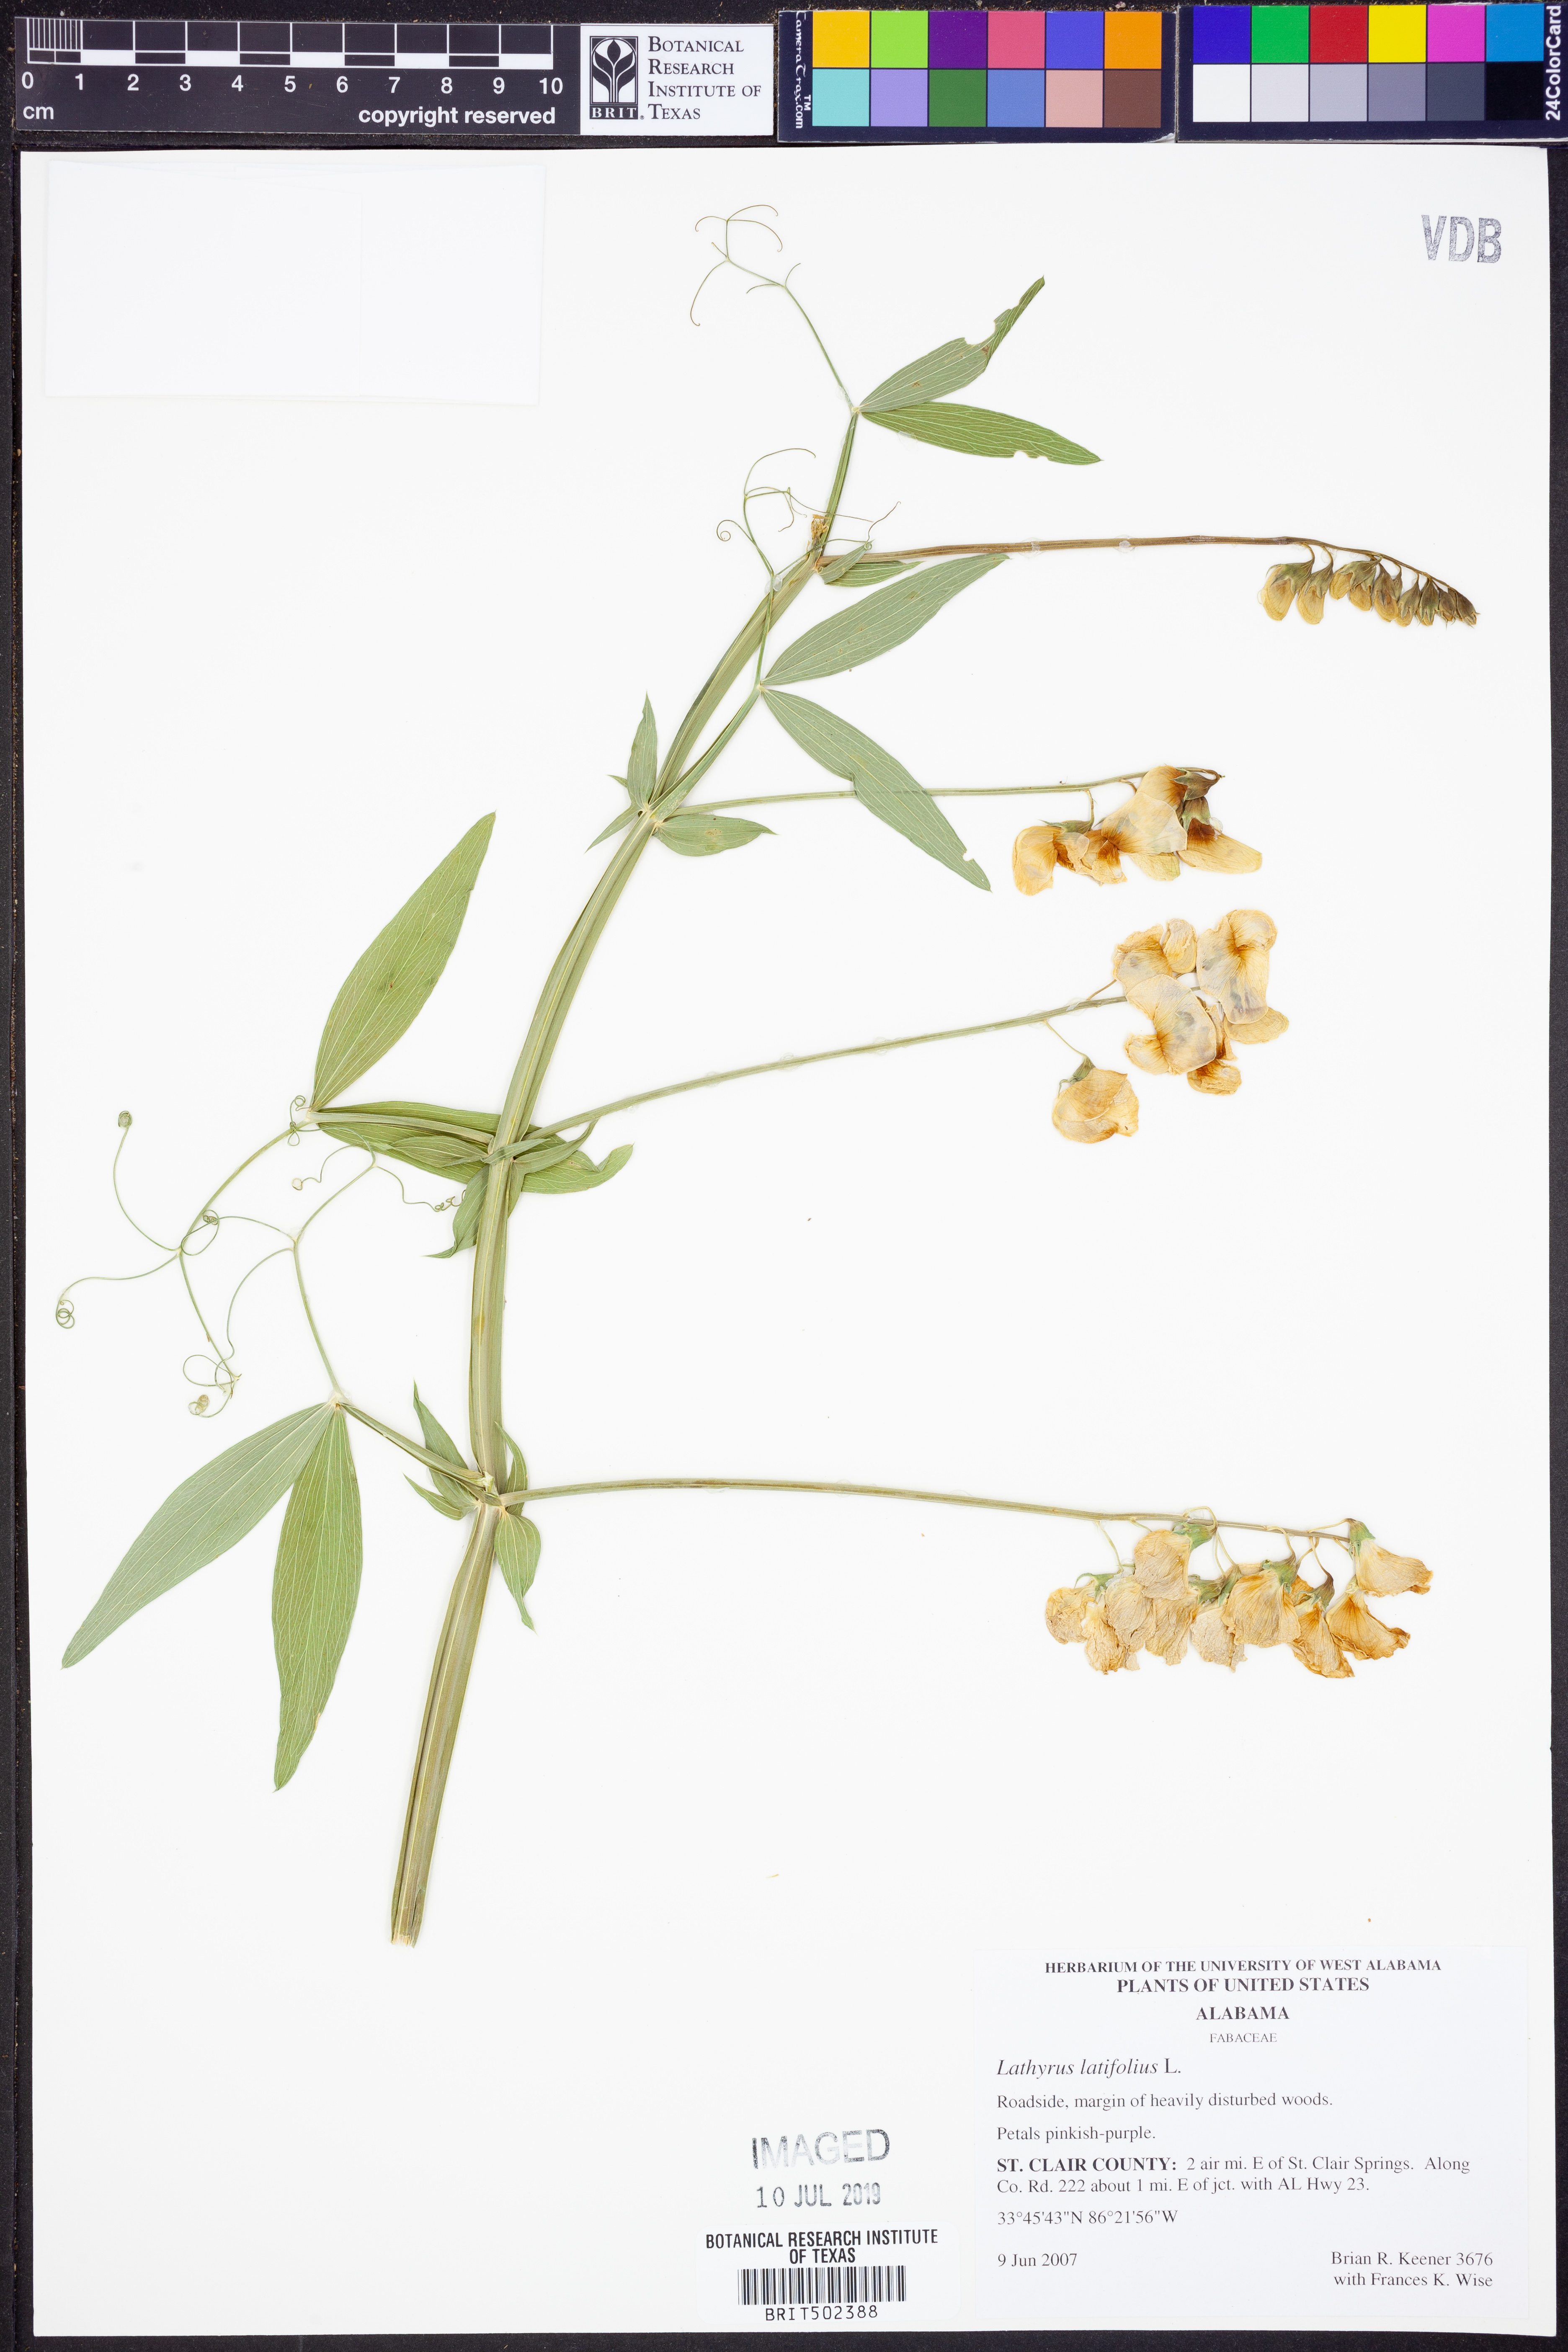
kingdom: Plantae
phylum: Tracheophyta
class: Magnoliopsida
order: Fabales
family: Fabaceae
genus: Lathyrus
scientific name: Lathyrus latifolius
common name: Perennial pea
